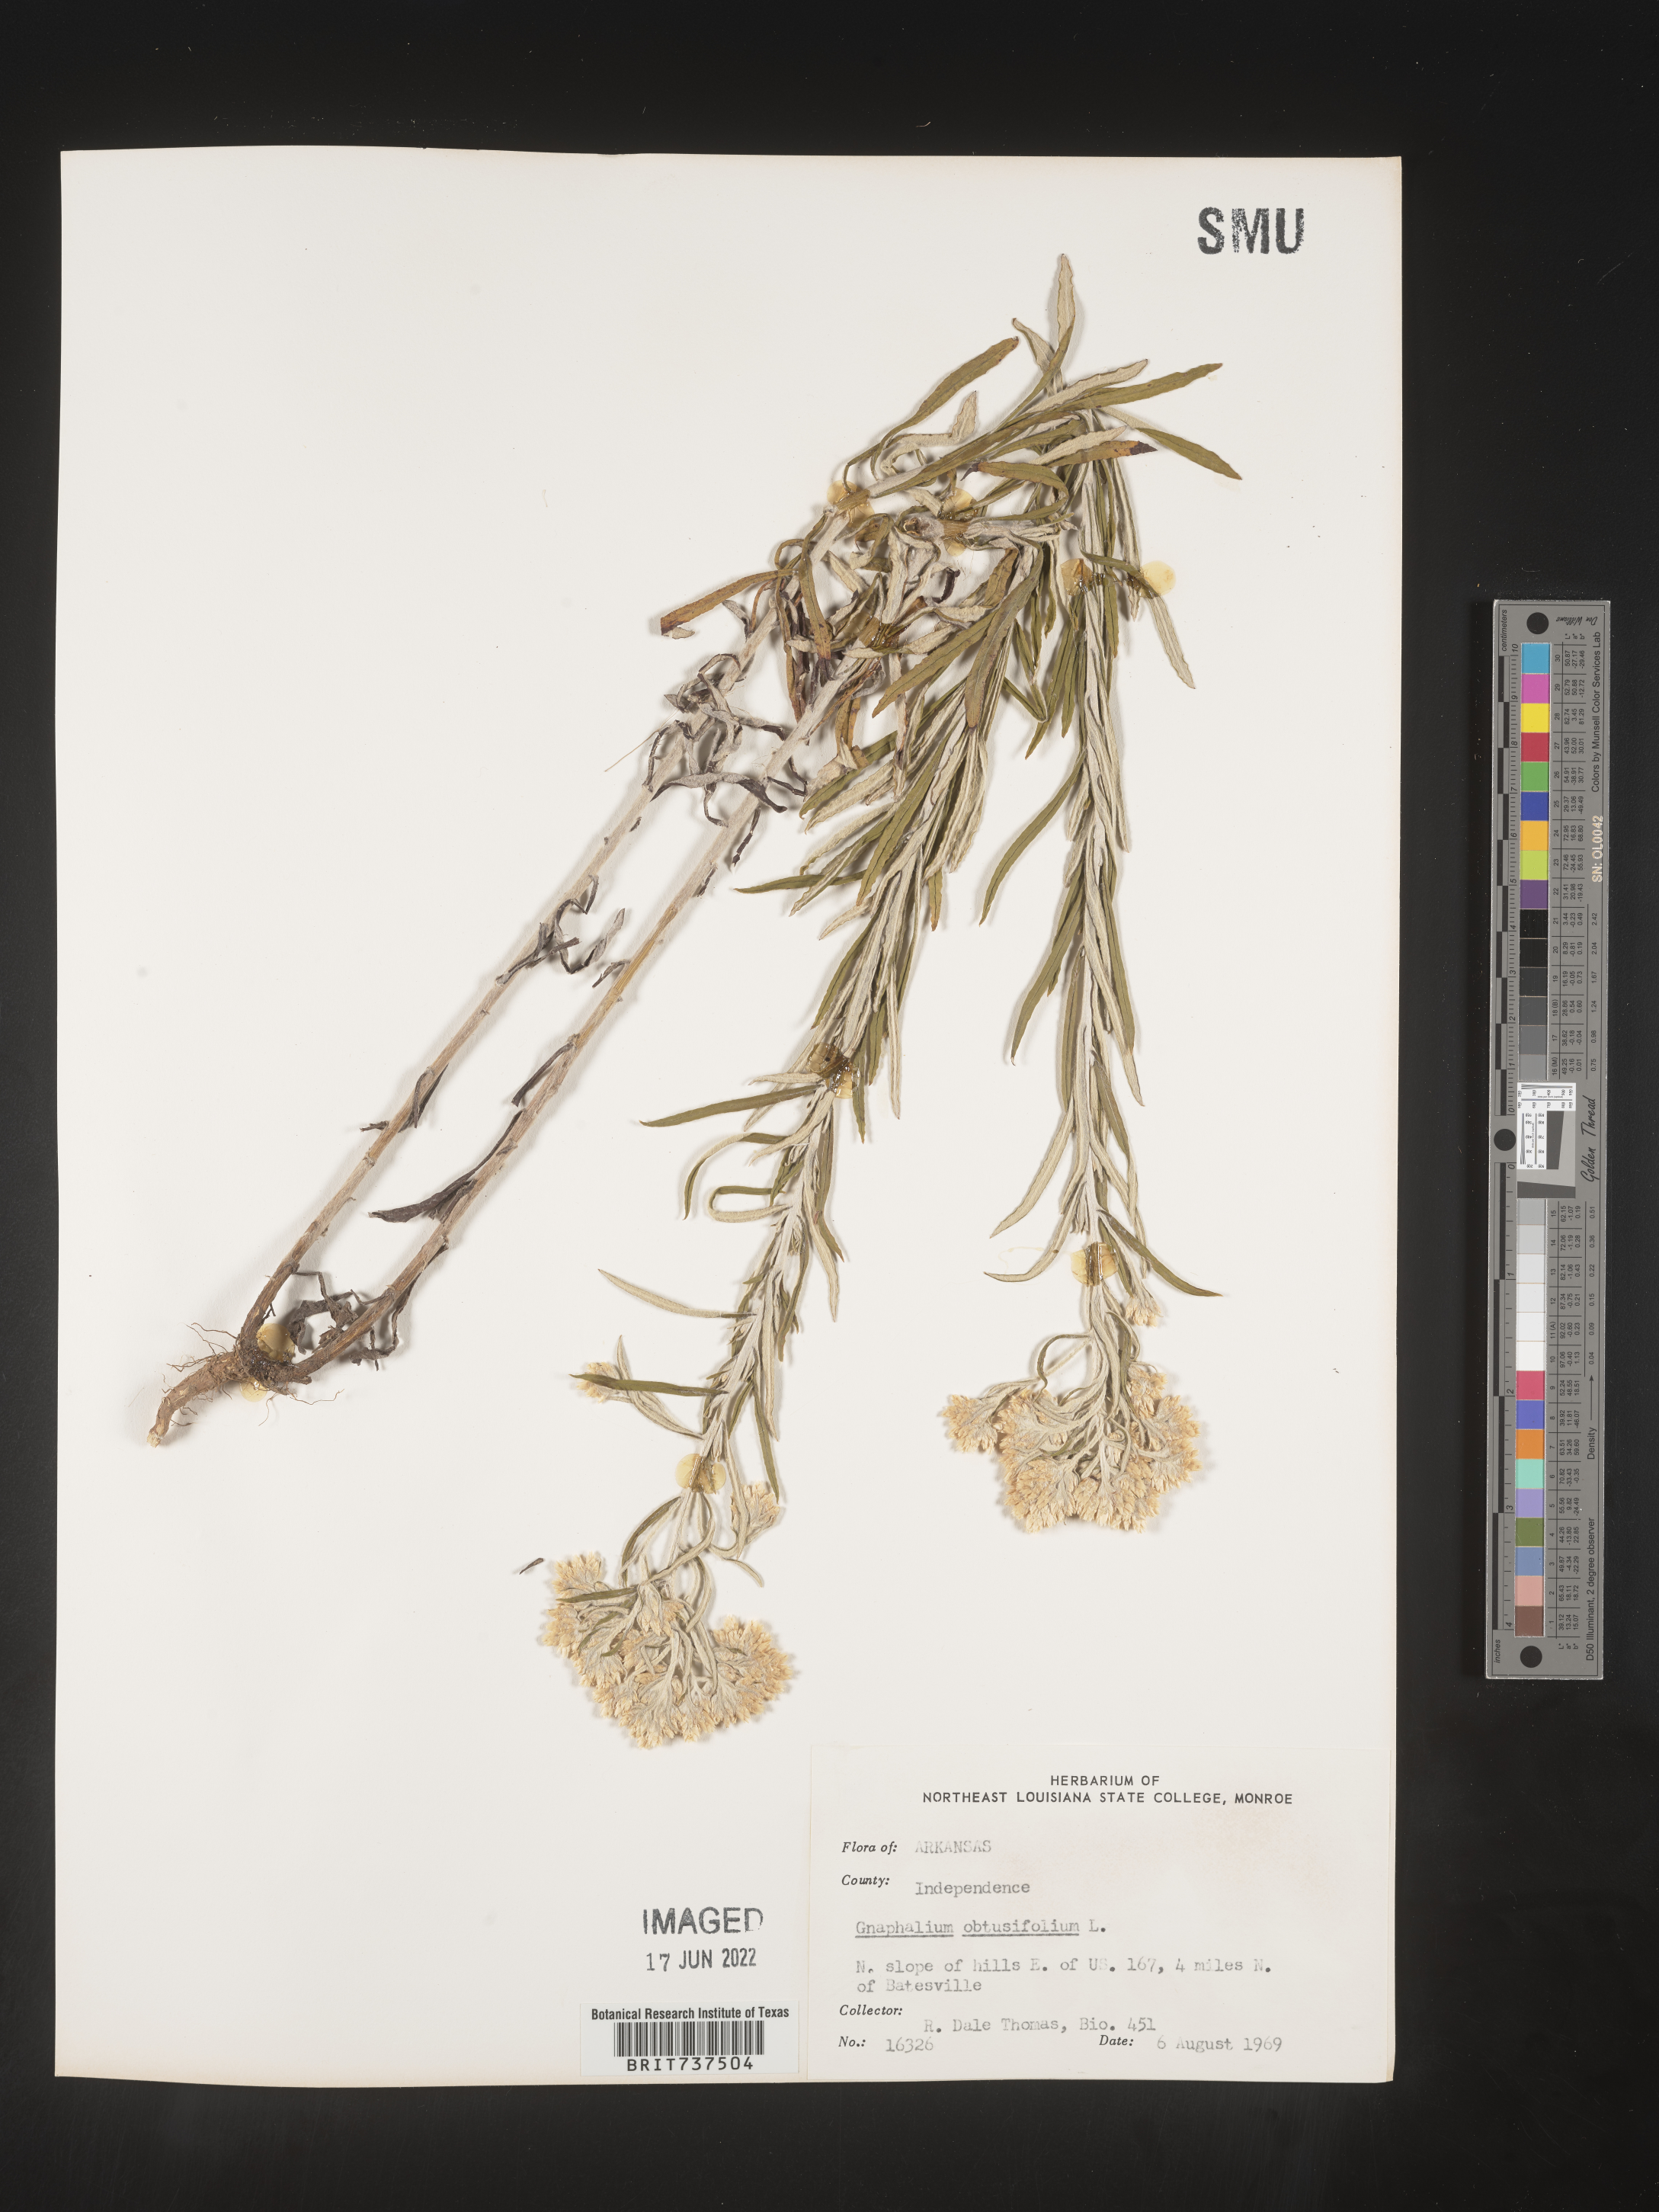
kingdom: Plantae
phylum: Tracheophyta
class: Magnoliopsida
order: Asterales
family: Asteraceae
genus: Pseudognaphalium
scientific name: Pseudognaphalium obtusifolium
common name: Eastern rabbit-tobacco
